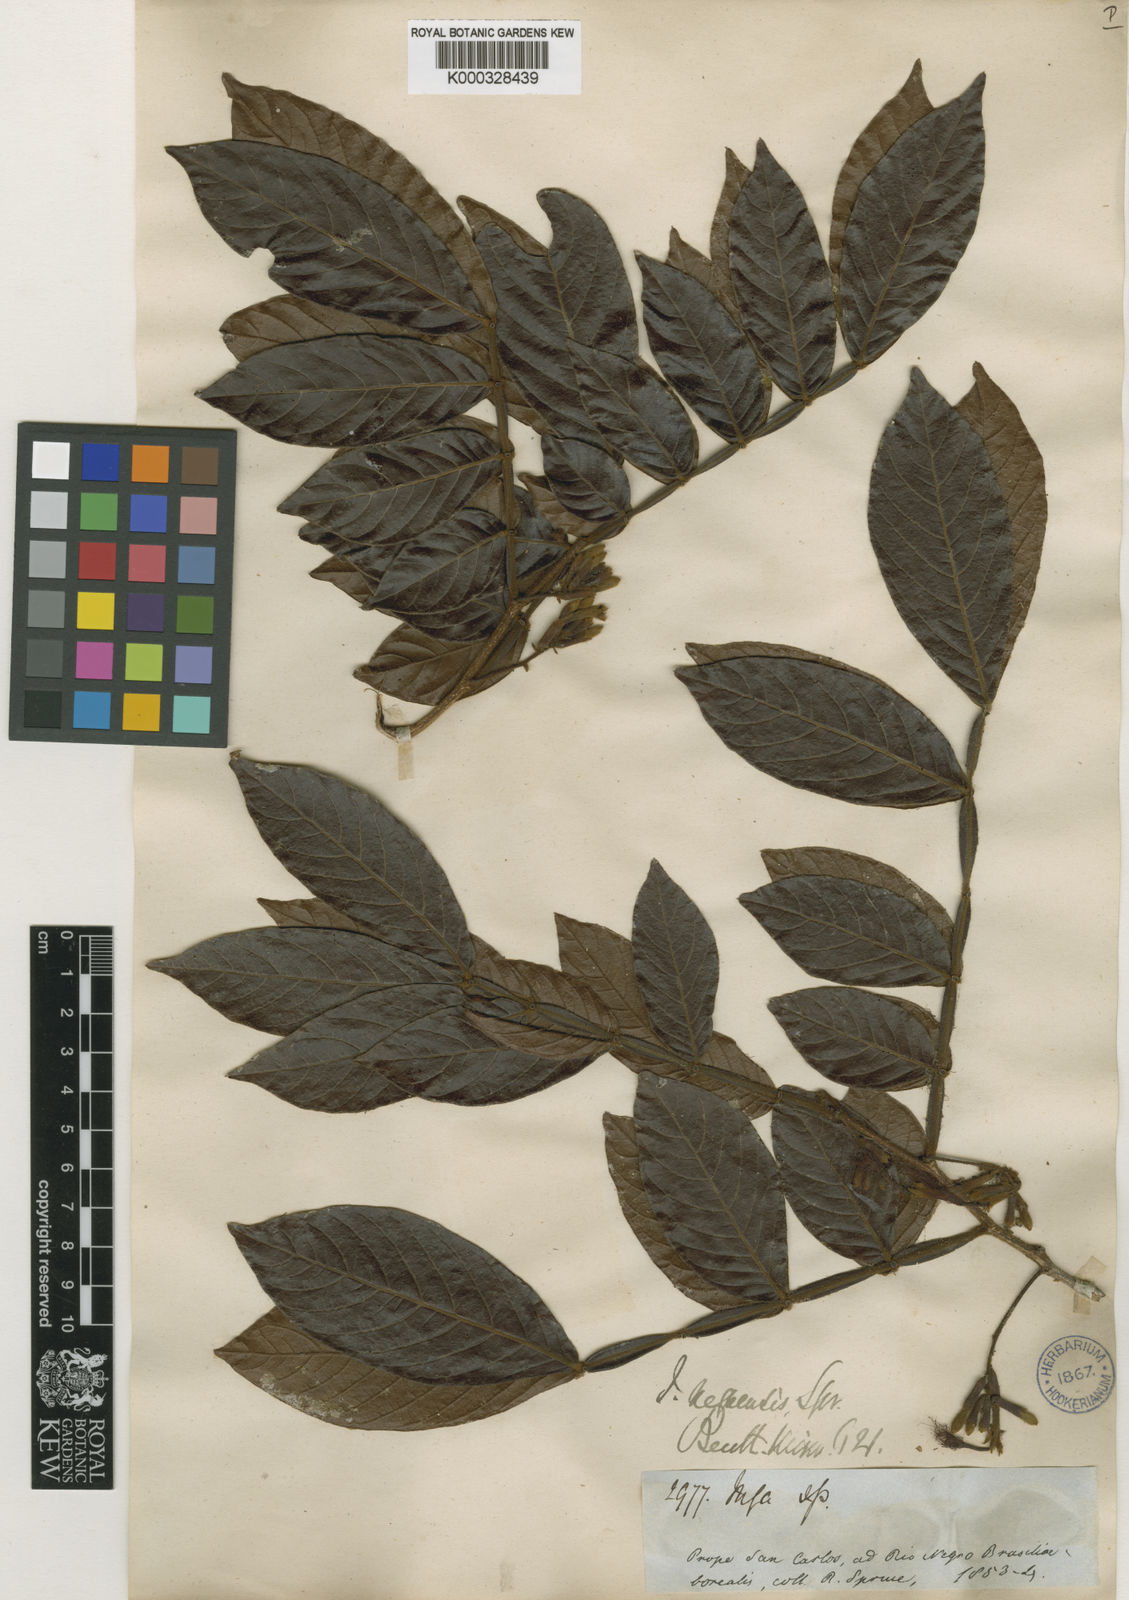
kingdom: Plantae
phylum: Tracheophyta
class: Magnoliopsida
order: Fabales
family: Fabaceae
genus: Inga
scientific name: Inga micradenia
